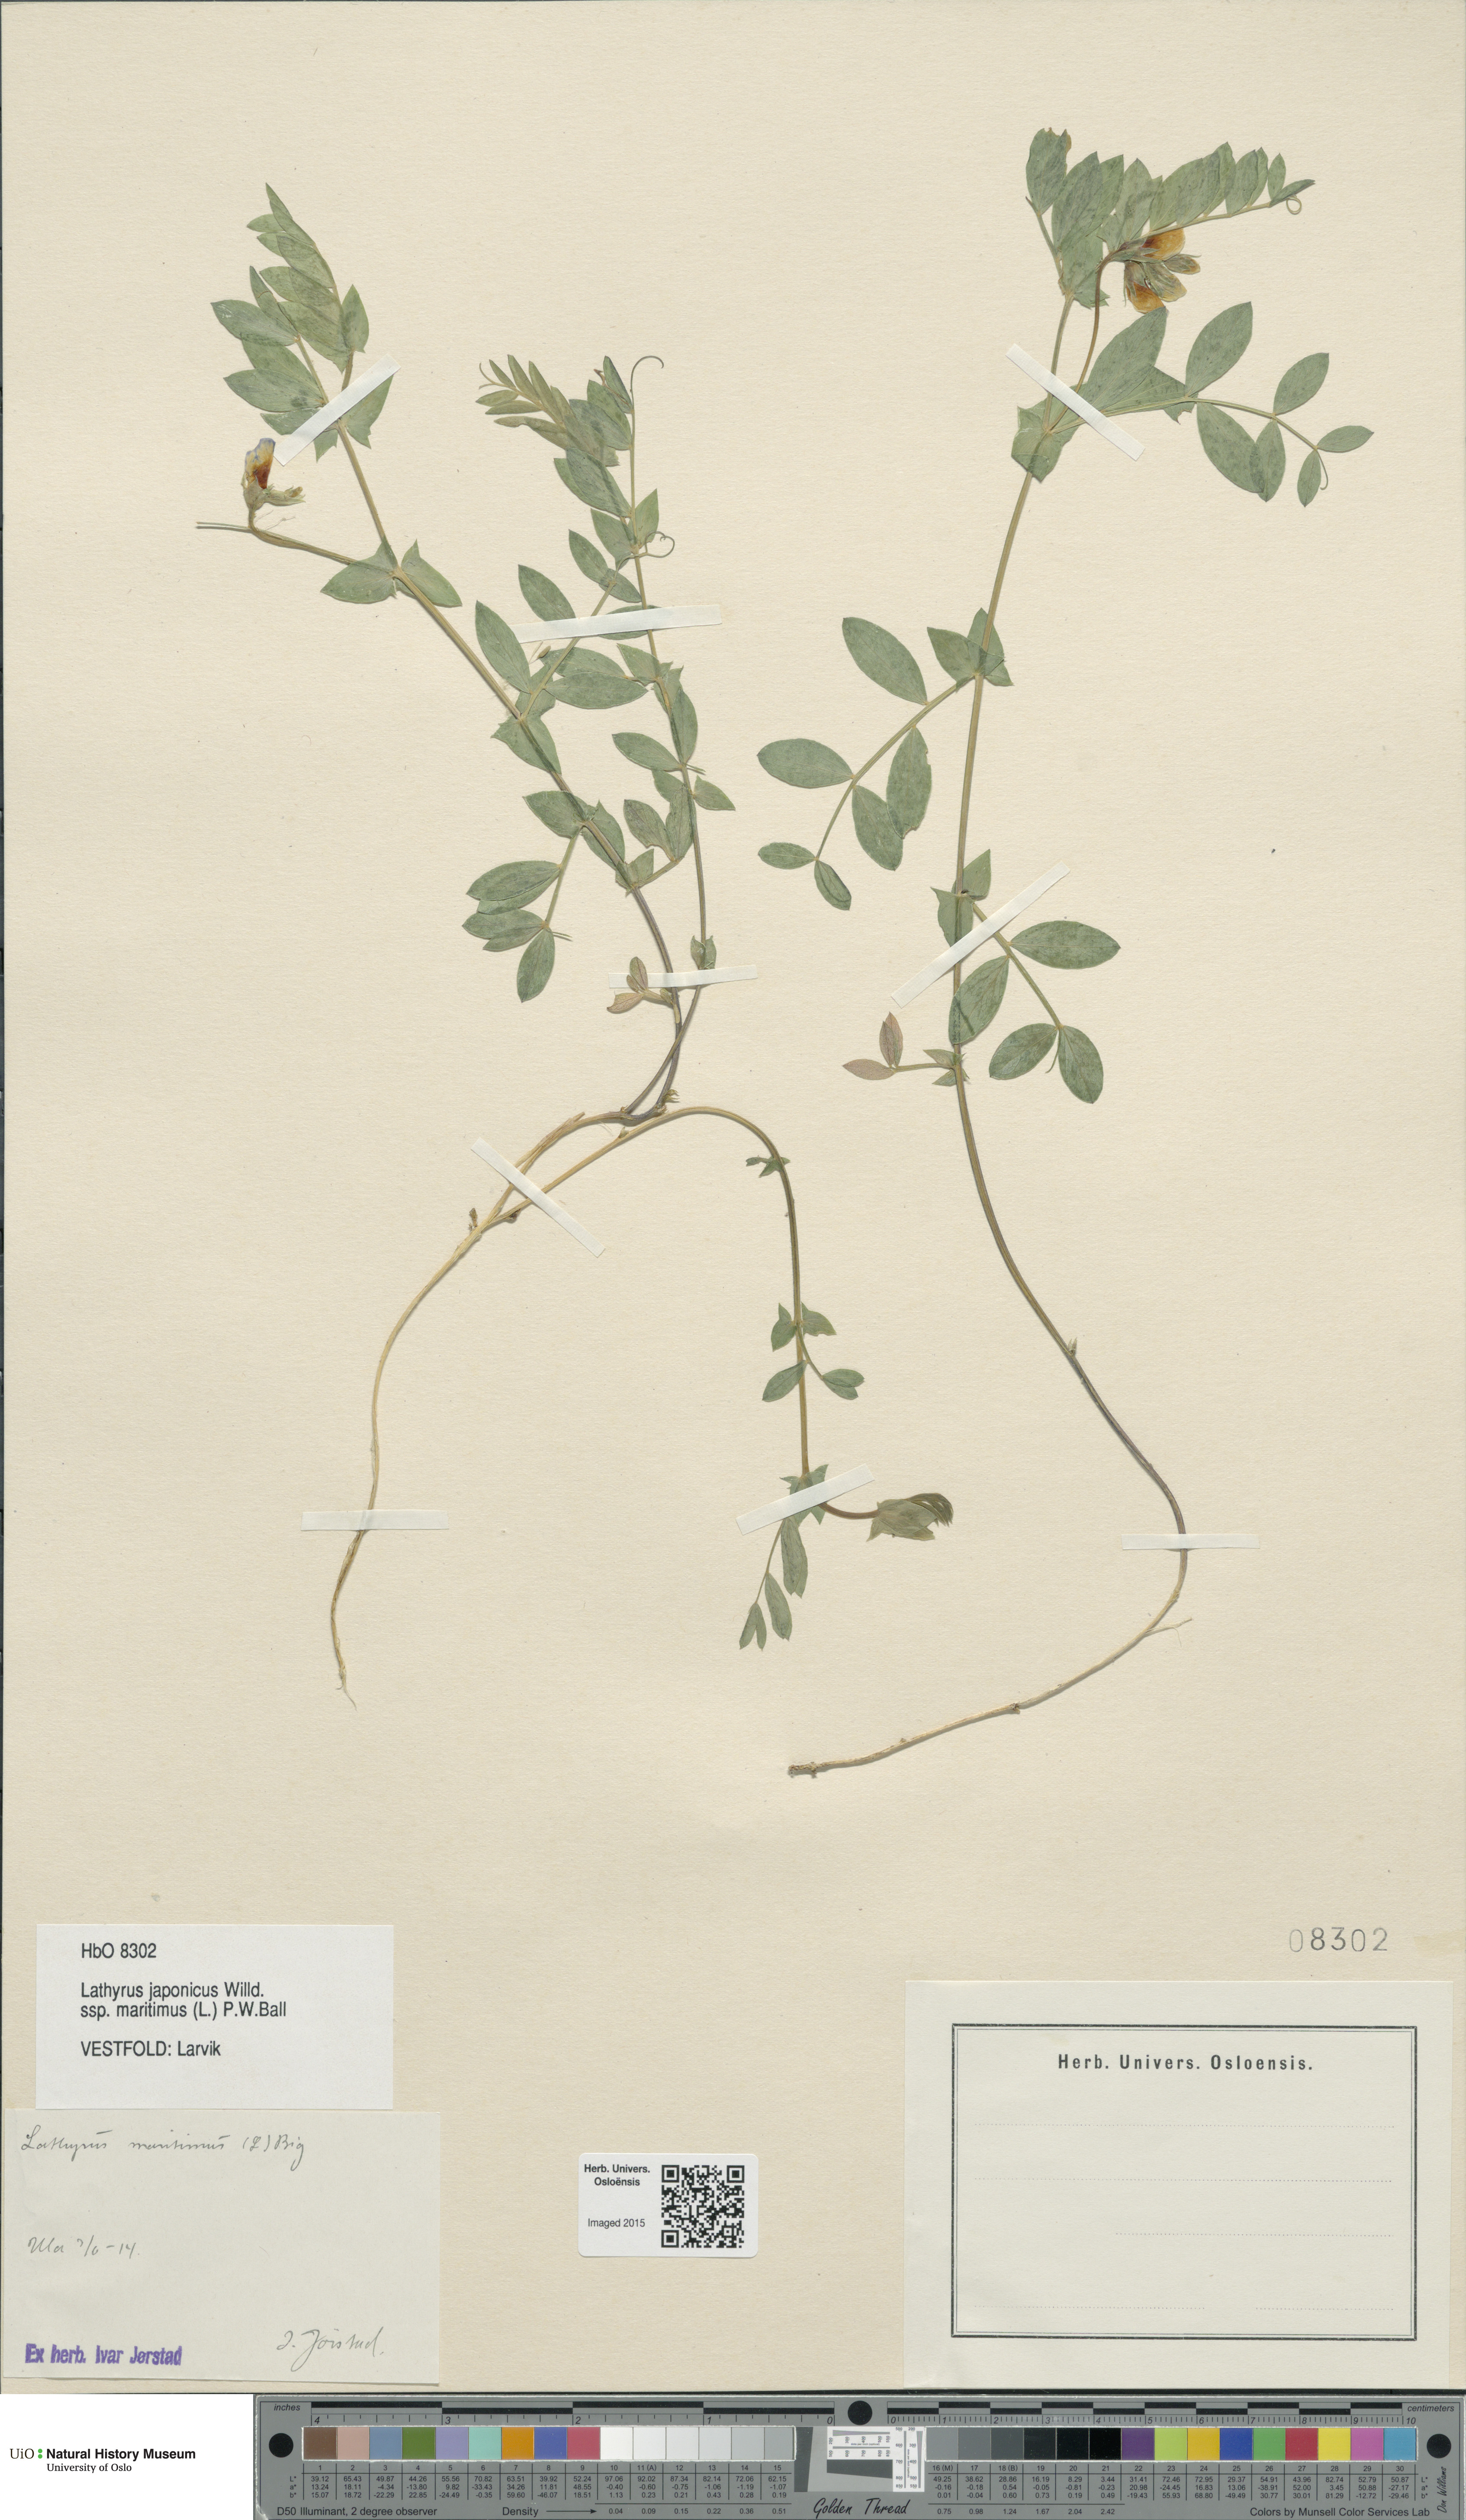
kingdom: Plantae
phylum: Tracheophyta
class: Magnoliopsida
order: Fabales
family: Fabaceae
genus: Lathyrus
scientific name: Lathyrus japonicus
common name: Sea pea
